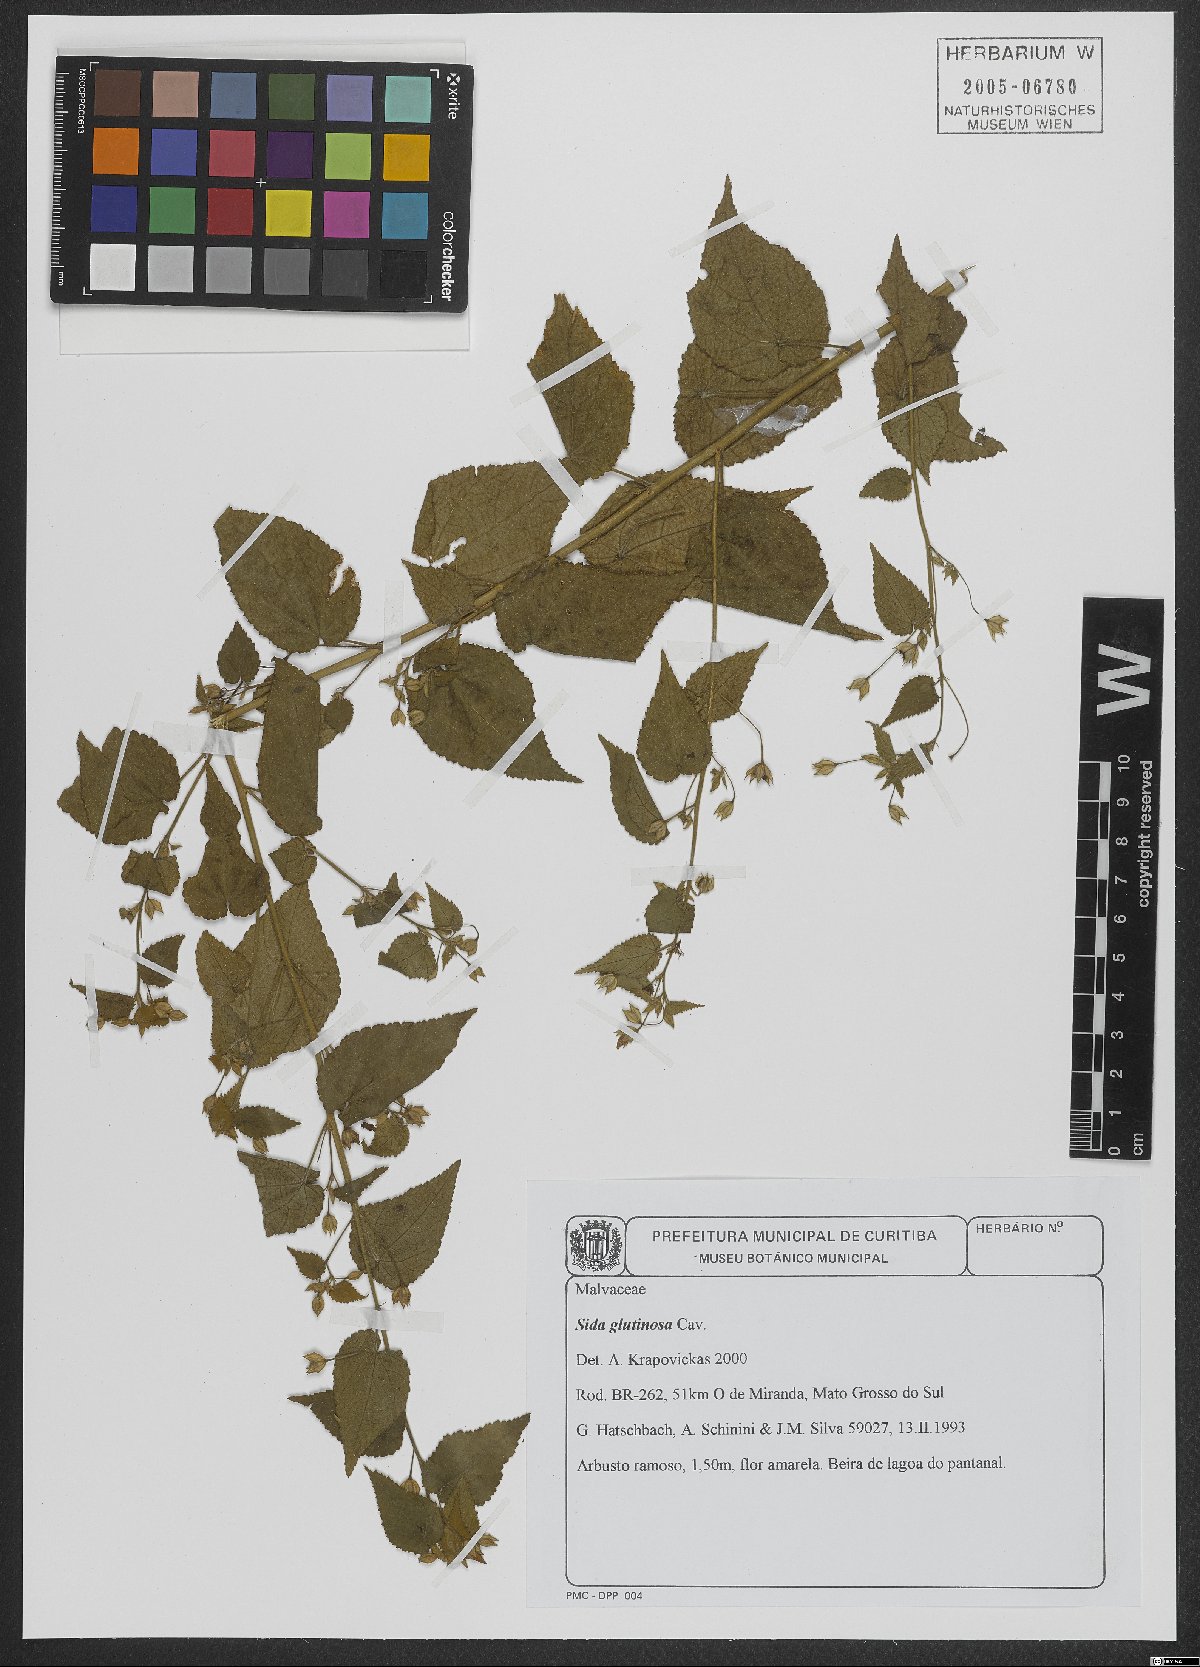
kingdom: Plantae
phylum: Tracheophyta
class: Magnoliopsida
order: Malvales
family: Malvaceae
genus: Sida
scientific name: Sida glabra
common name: Smooth fanpetals
